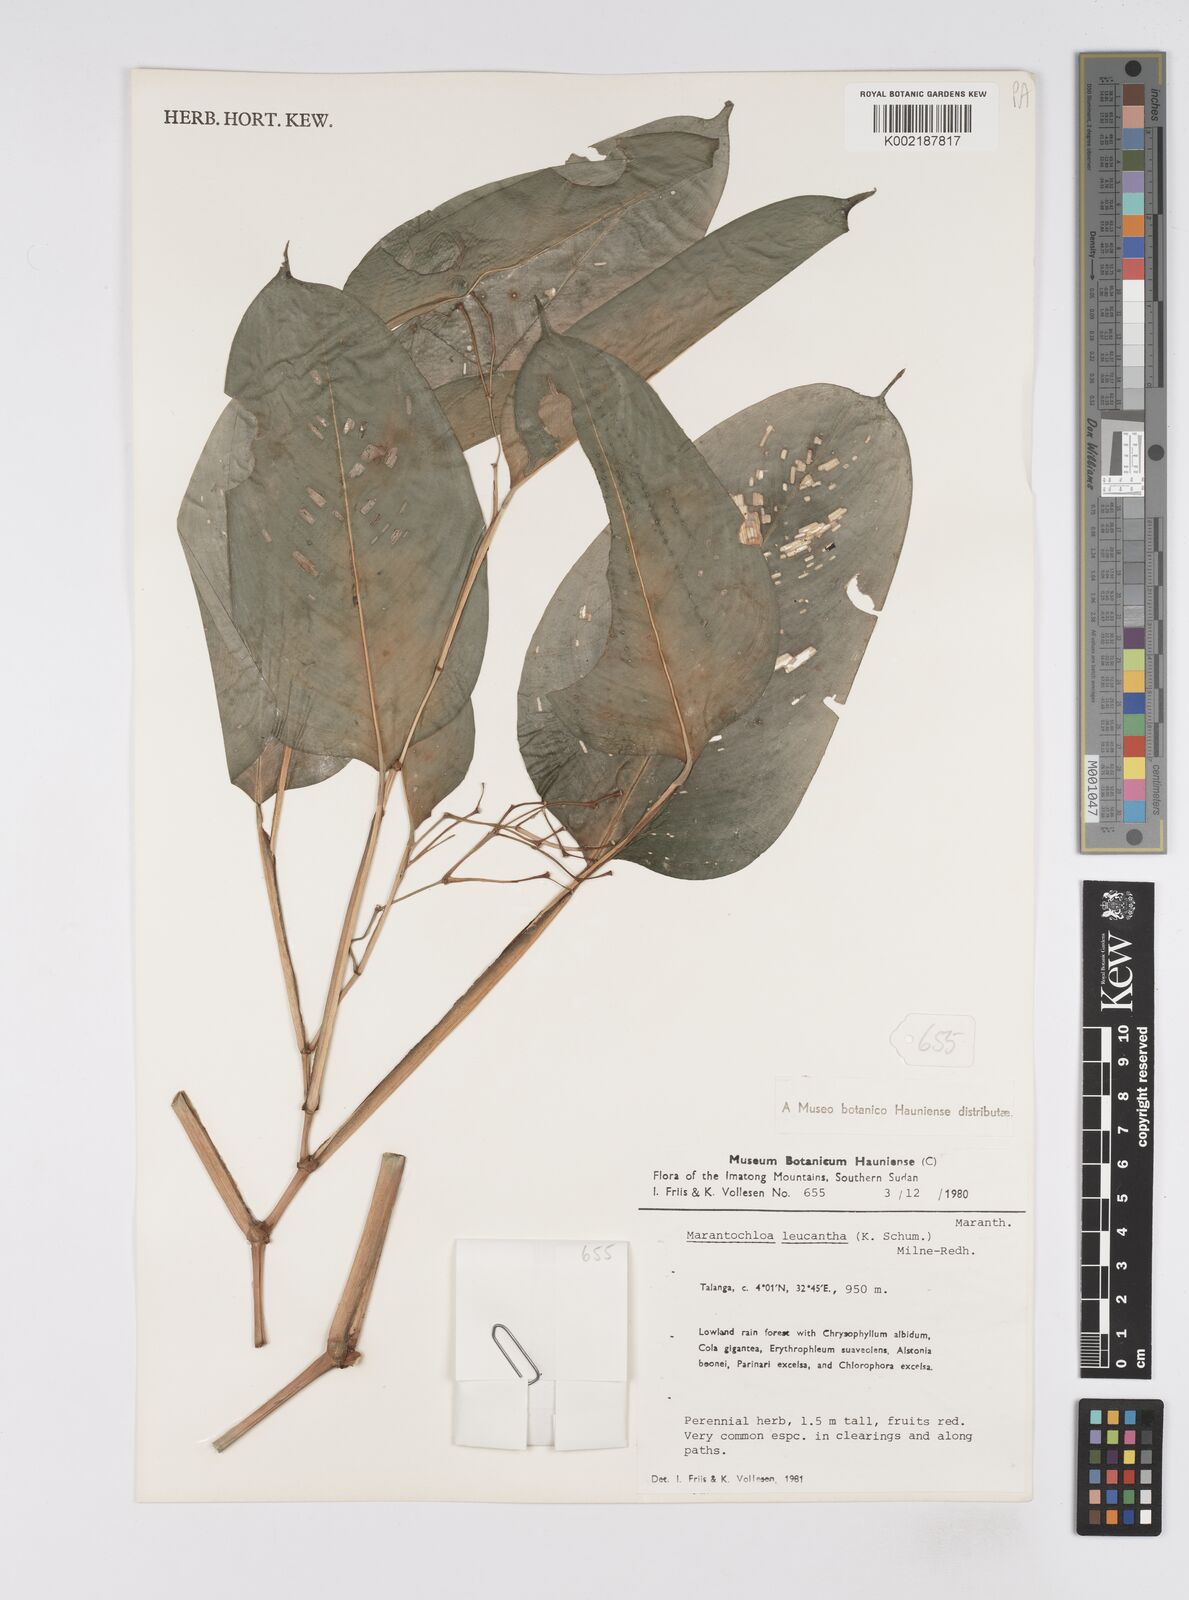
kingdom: Plantae
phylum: Tracheophyta
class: Liliopsida
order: Zingiberales
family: Marantaceae
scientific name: Marantaceae
